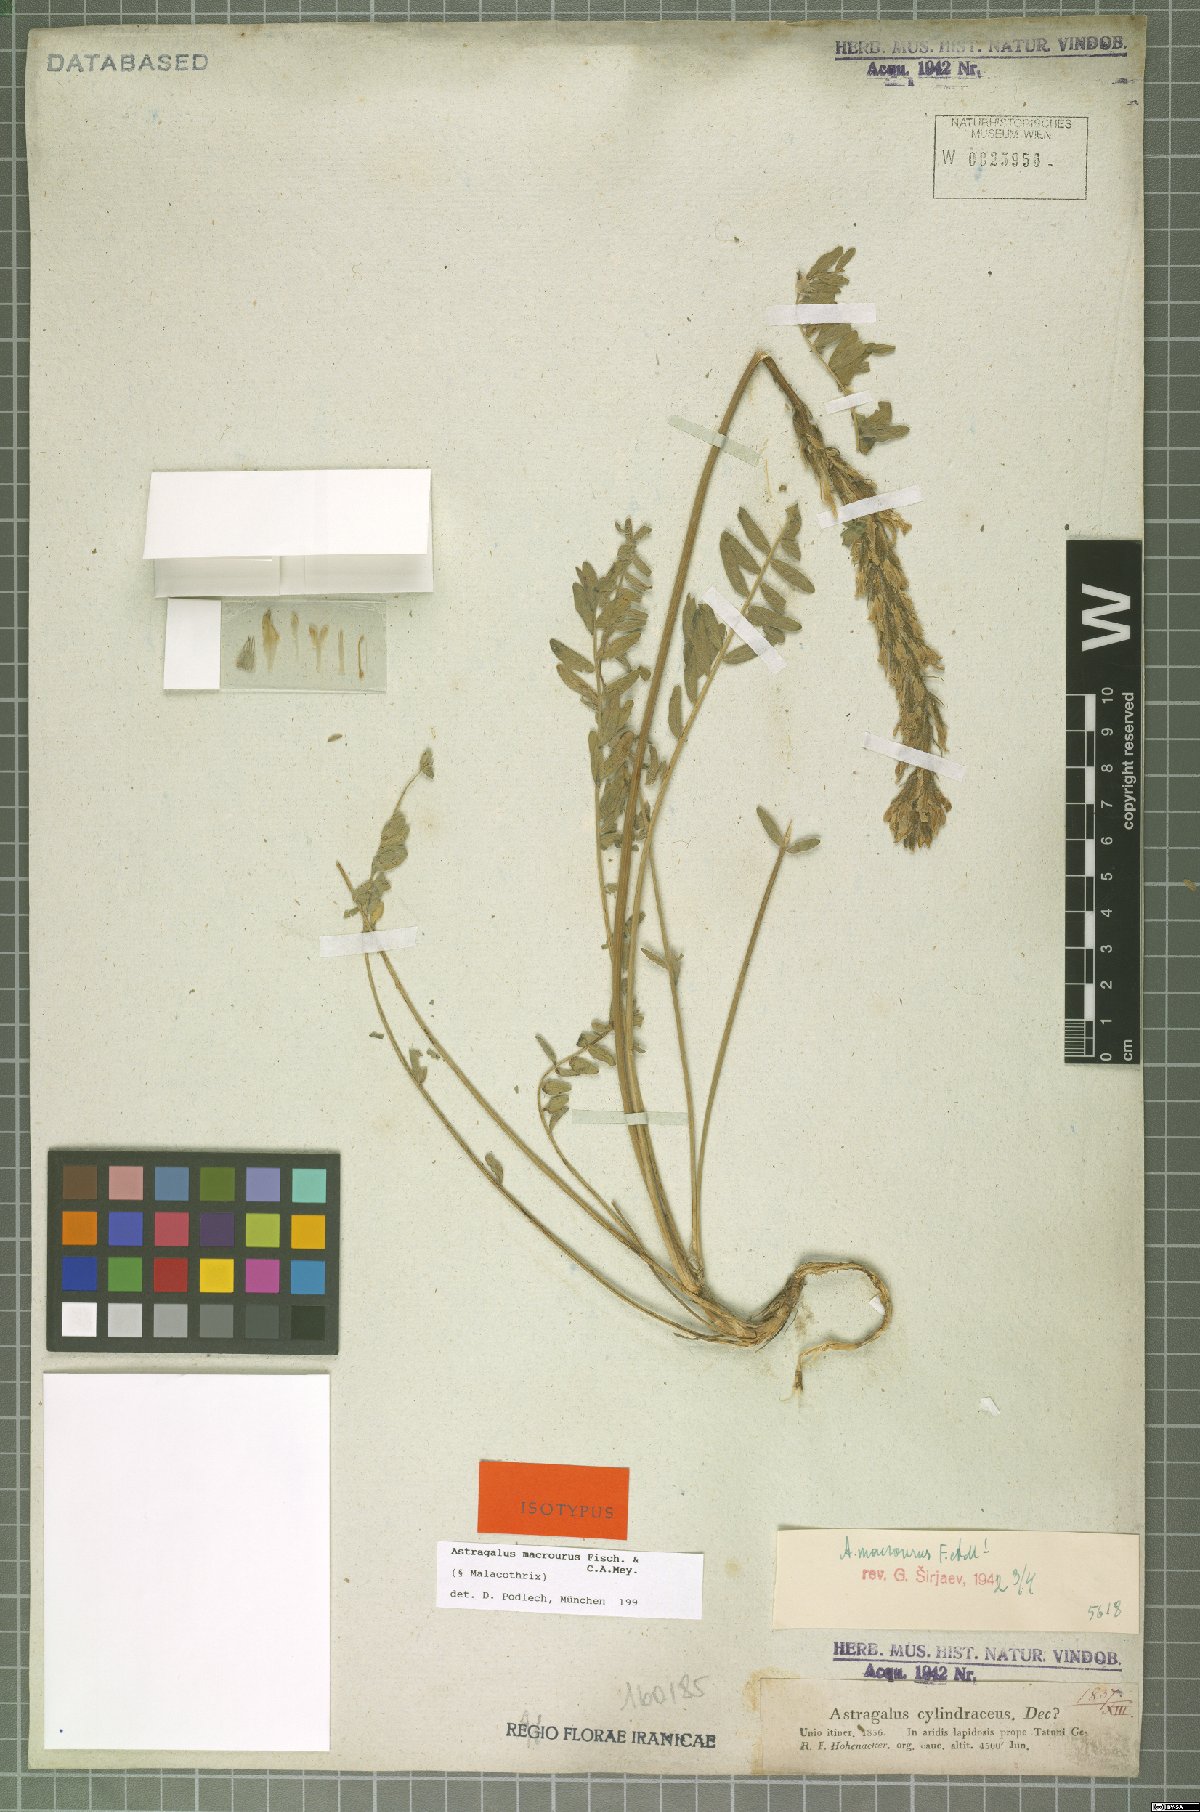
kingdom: Plantae
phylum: Tracheophyta
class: Magnoliopsida
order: Fabales
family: Fabaceae
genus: Astragalus
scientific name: Astragalus macrourus
